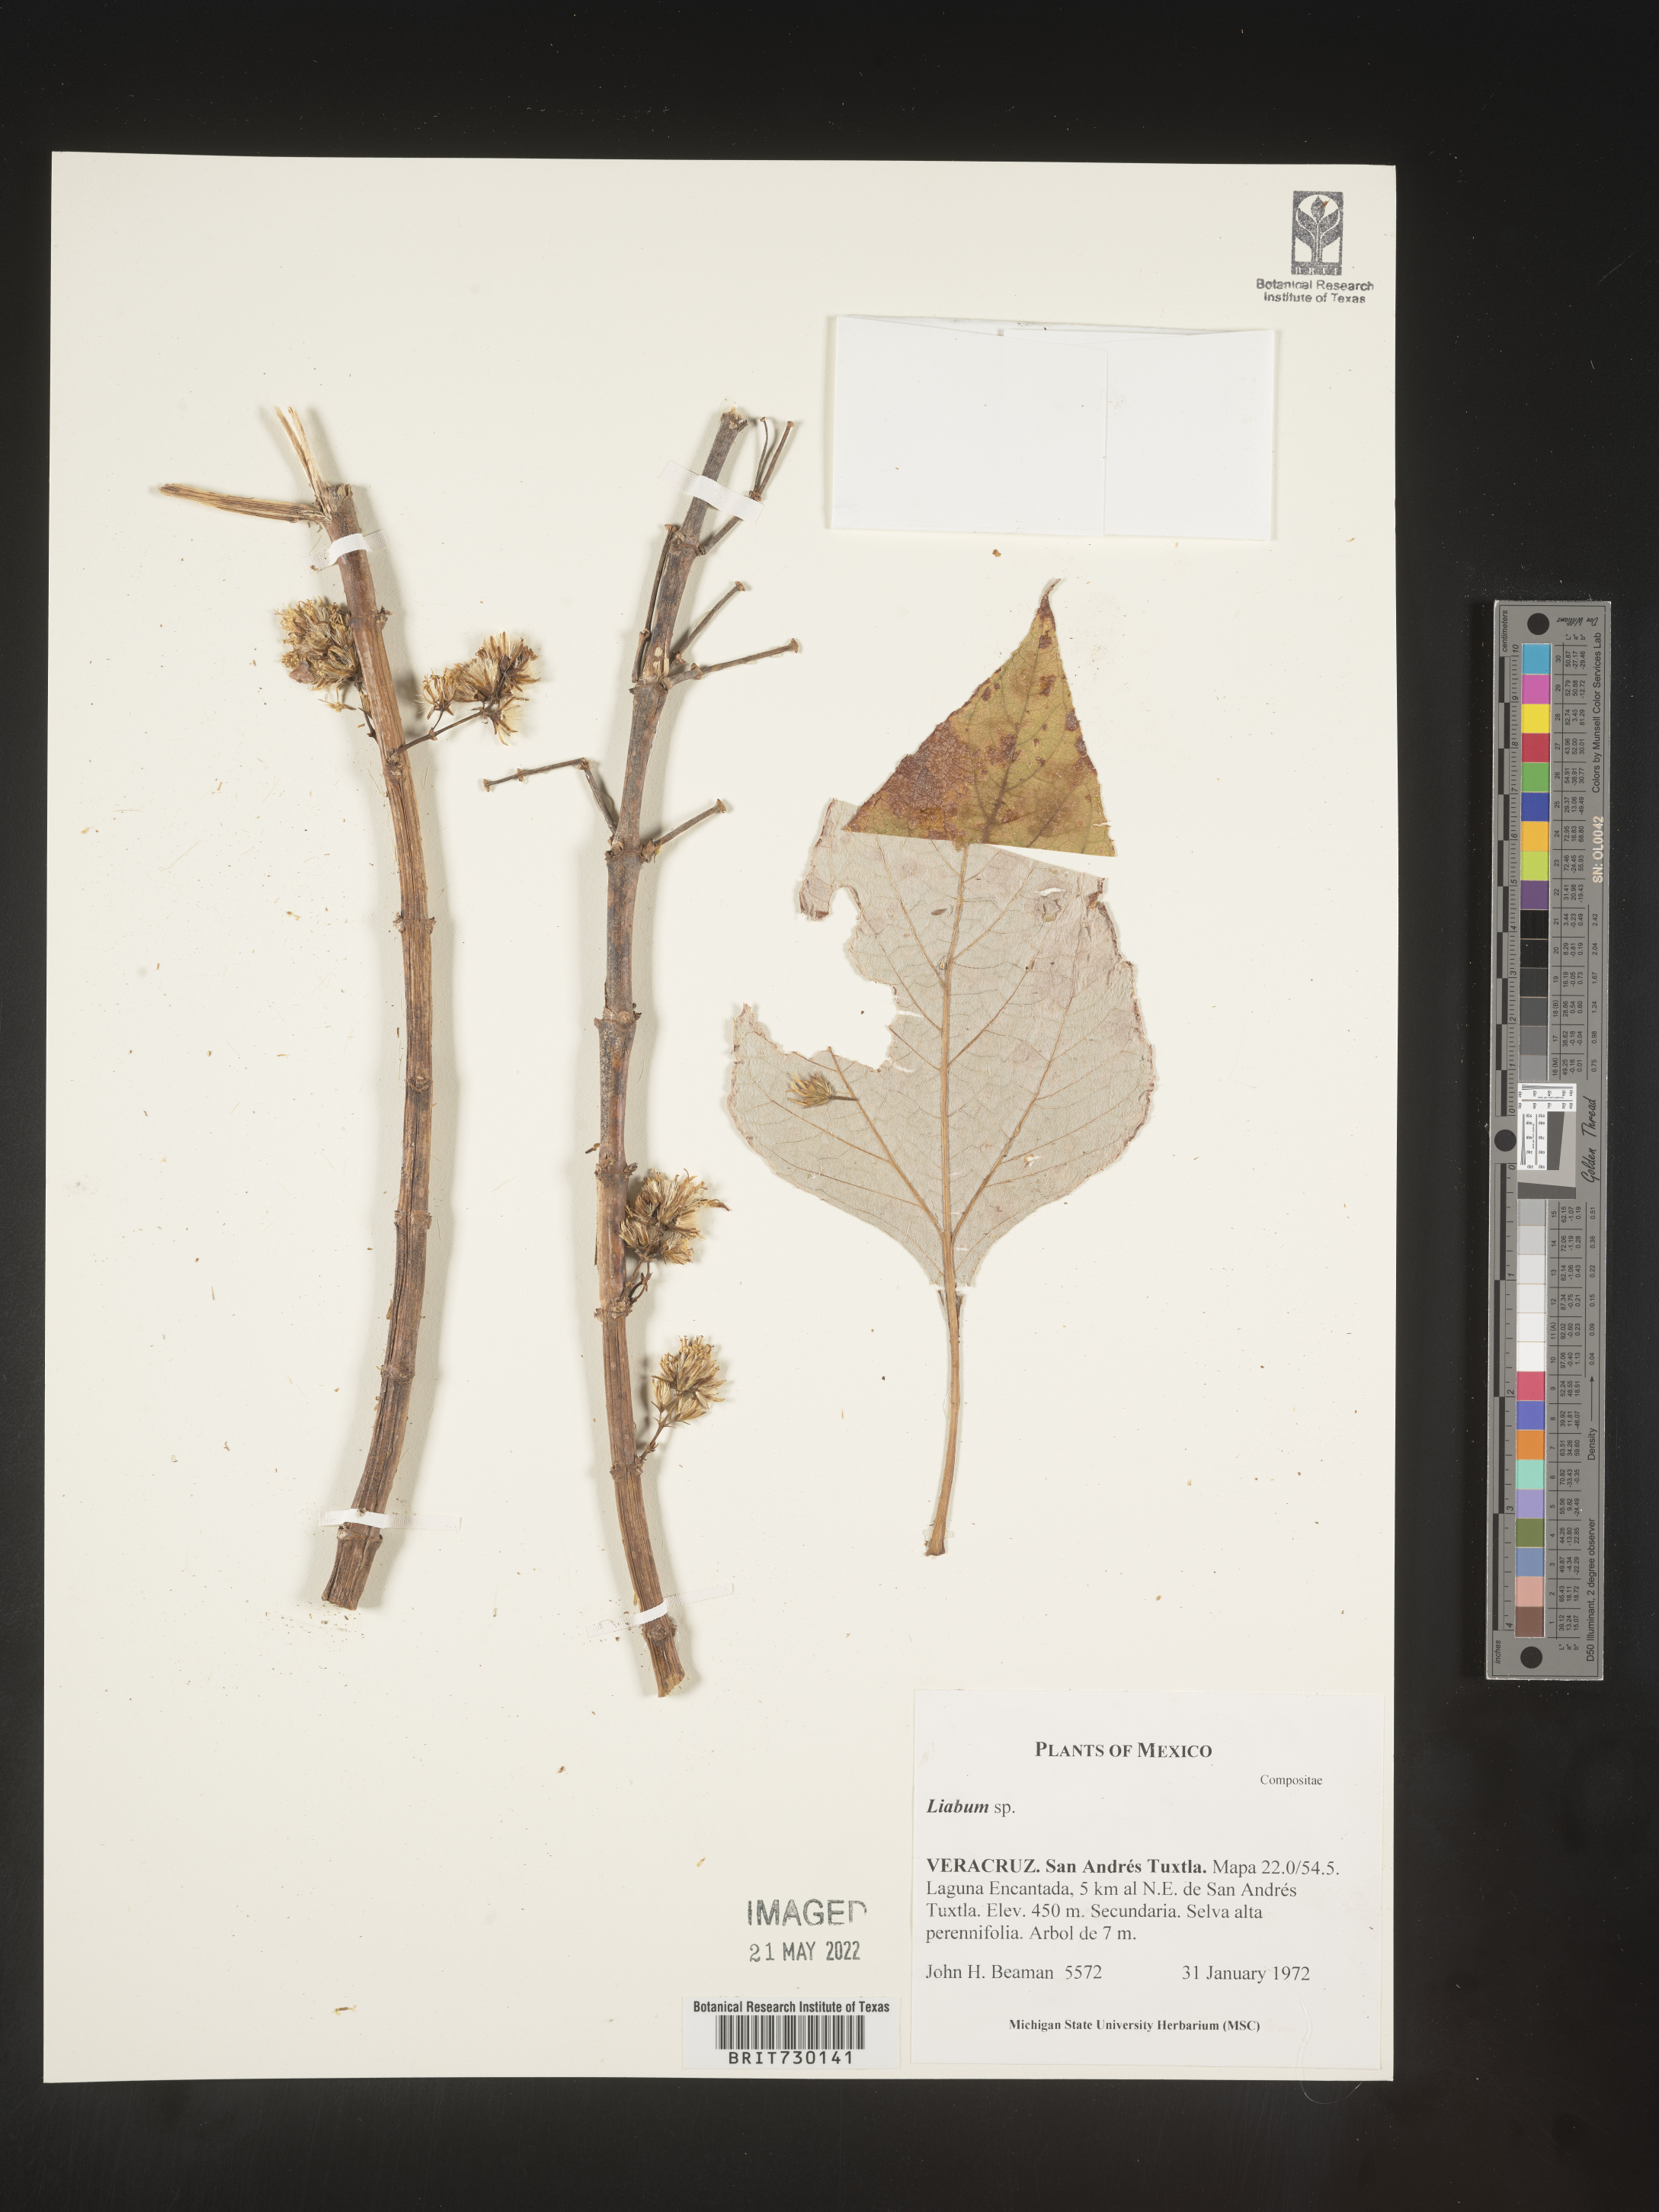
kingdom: Plantae
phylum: Tracheophyta
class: Magnoliopsida
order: Asterales
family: Asteraceae
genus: Liabum
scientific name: Liabum
